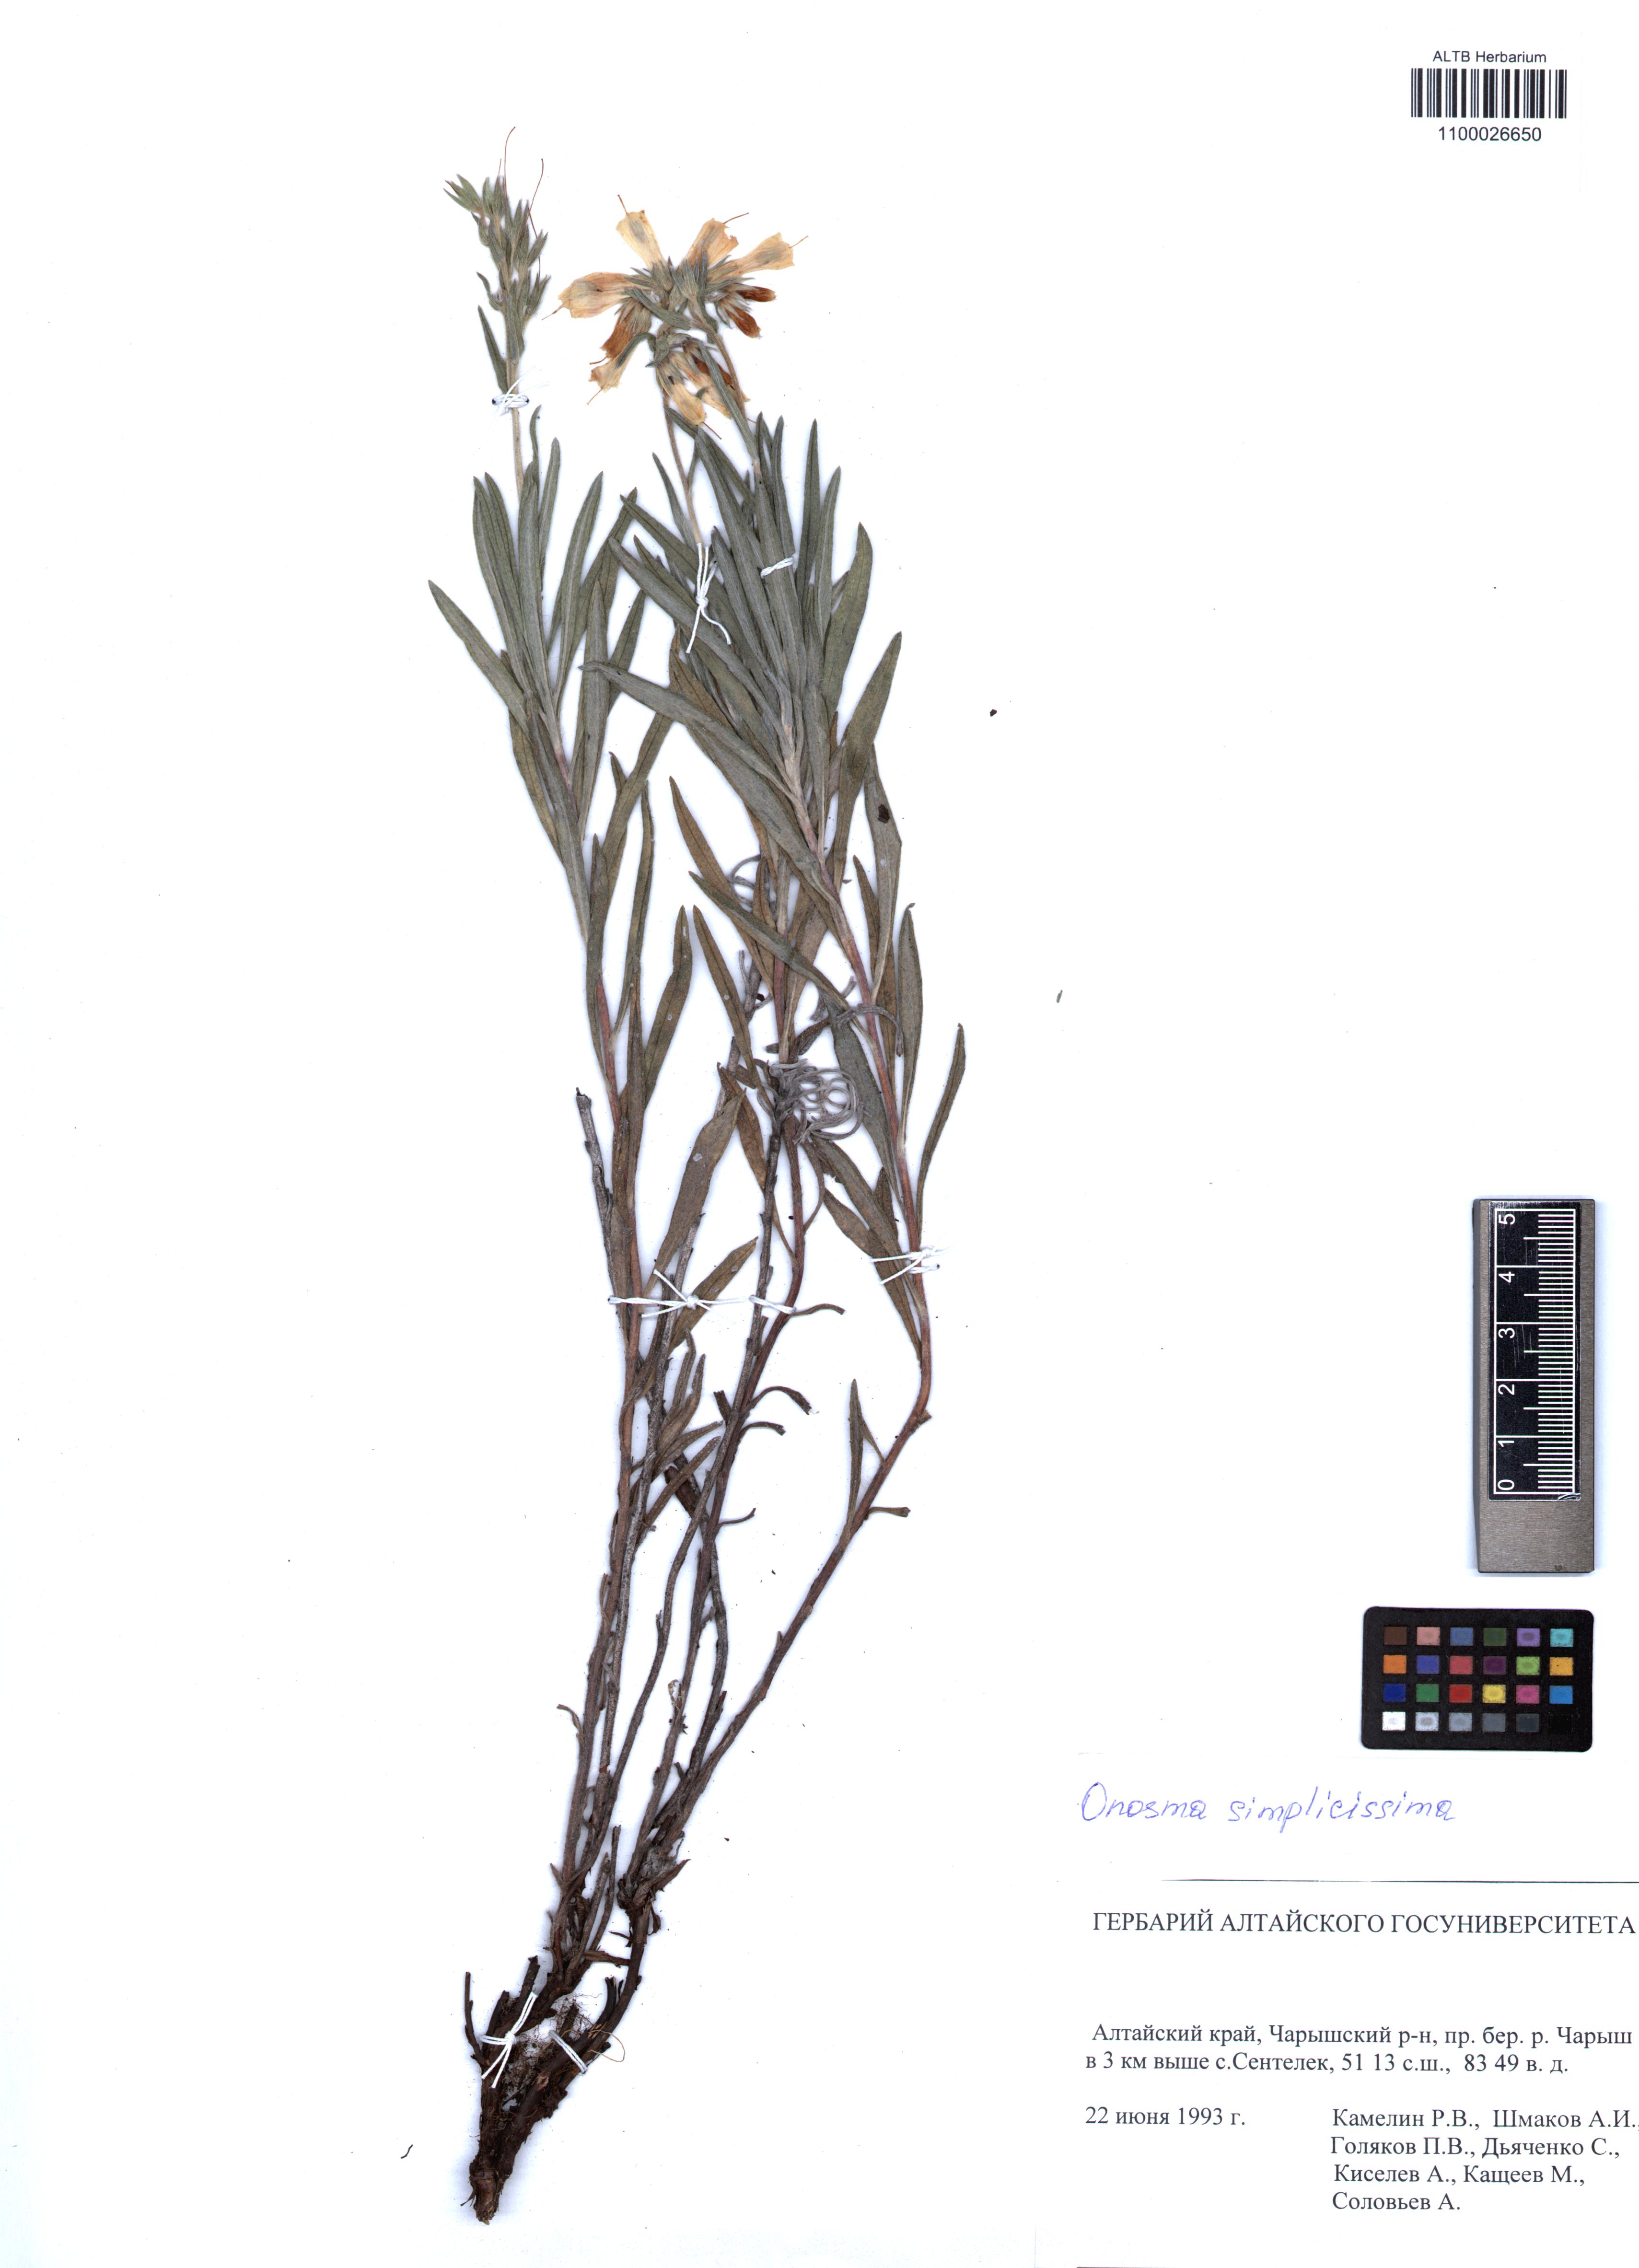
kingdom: Plantae
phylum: Tracheophyta
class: Magnoliopsida
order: Boraginales
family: Boraginaceae
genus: Onosma
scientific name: Onosma simplicissima
